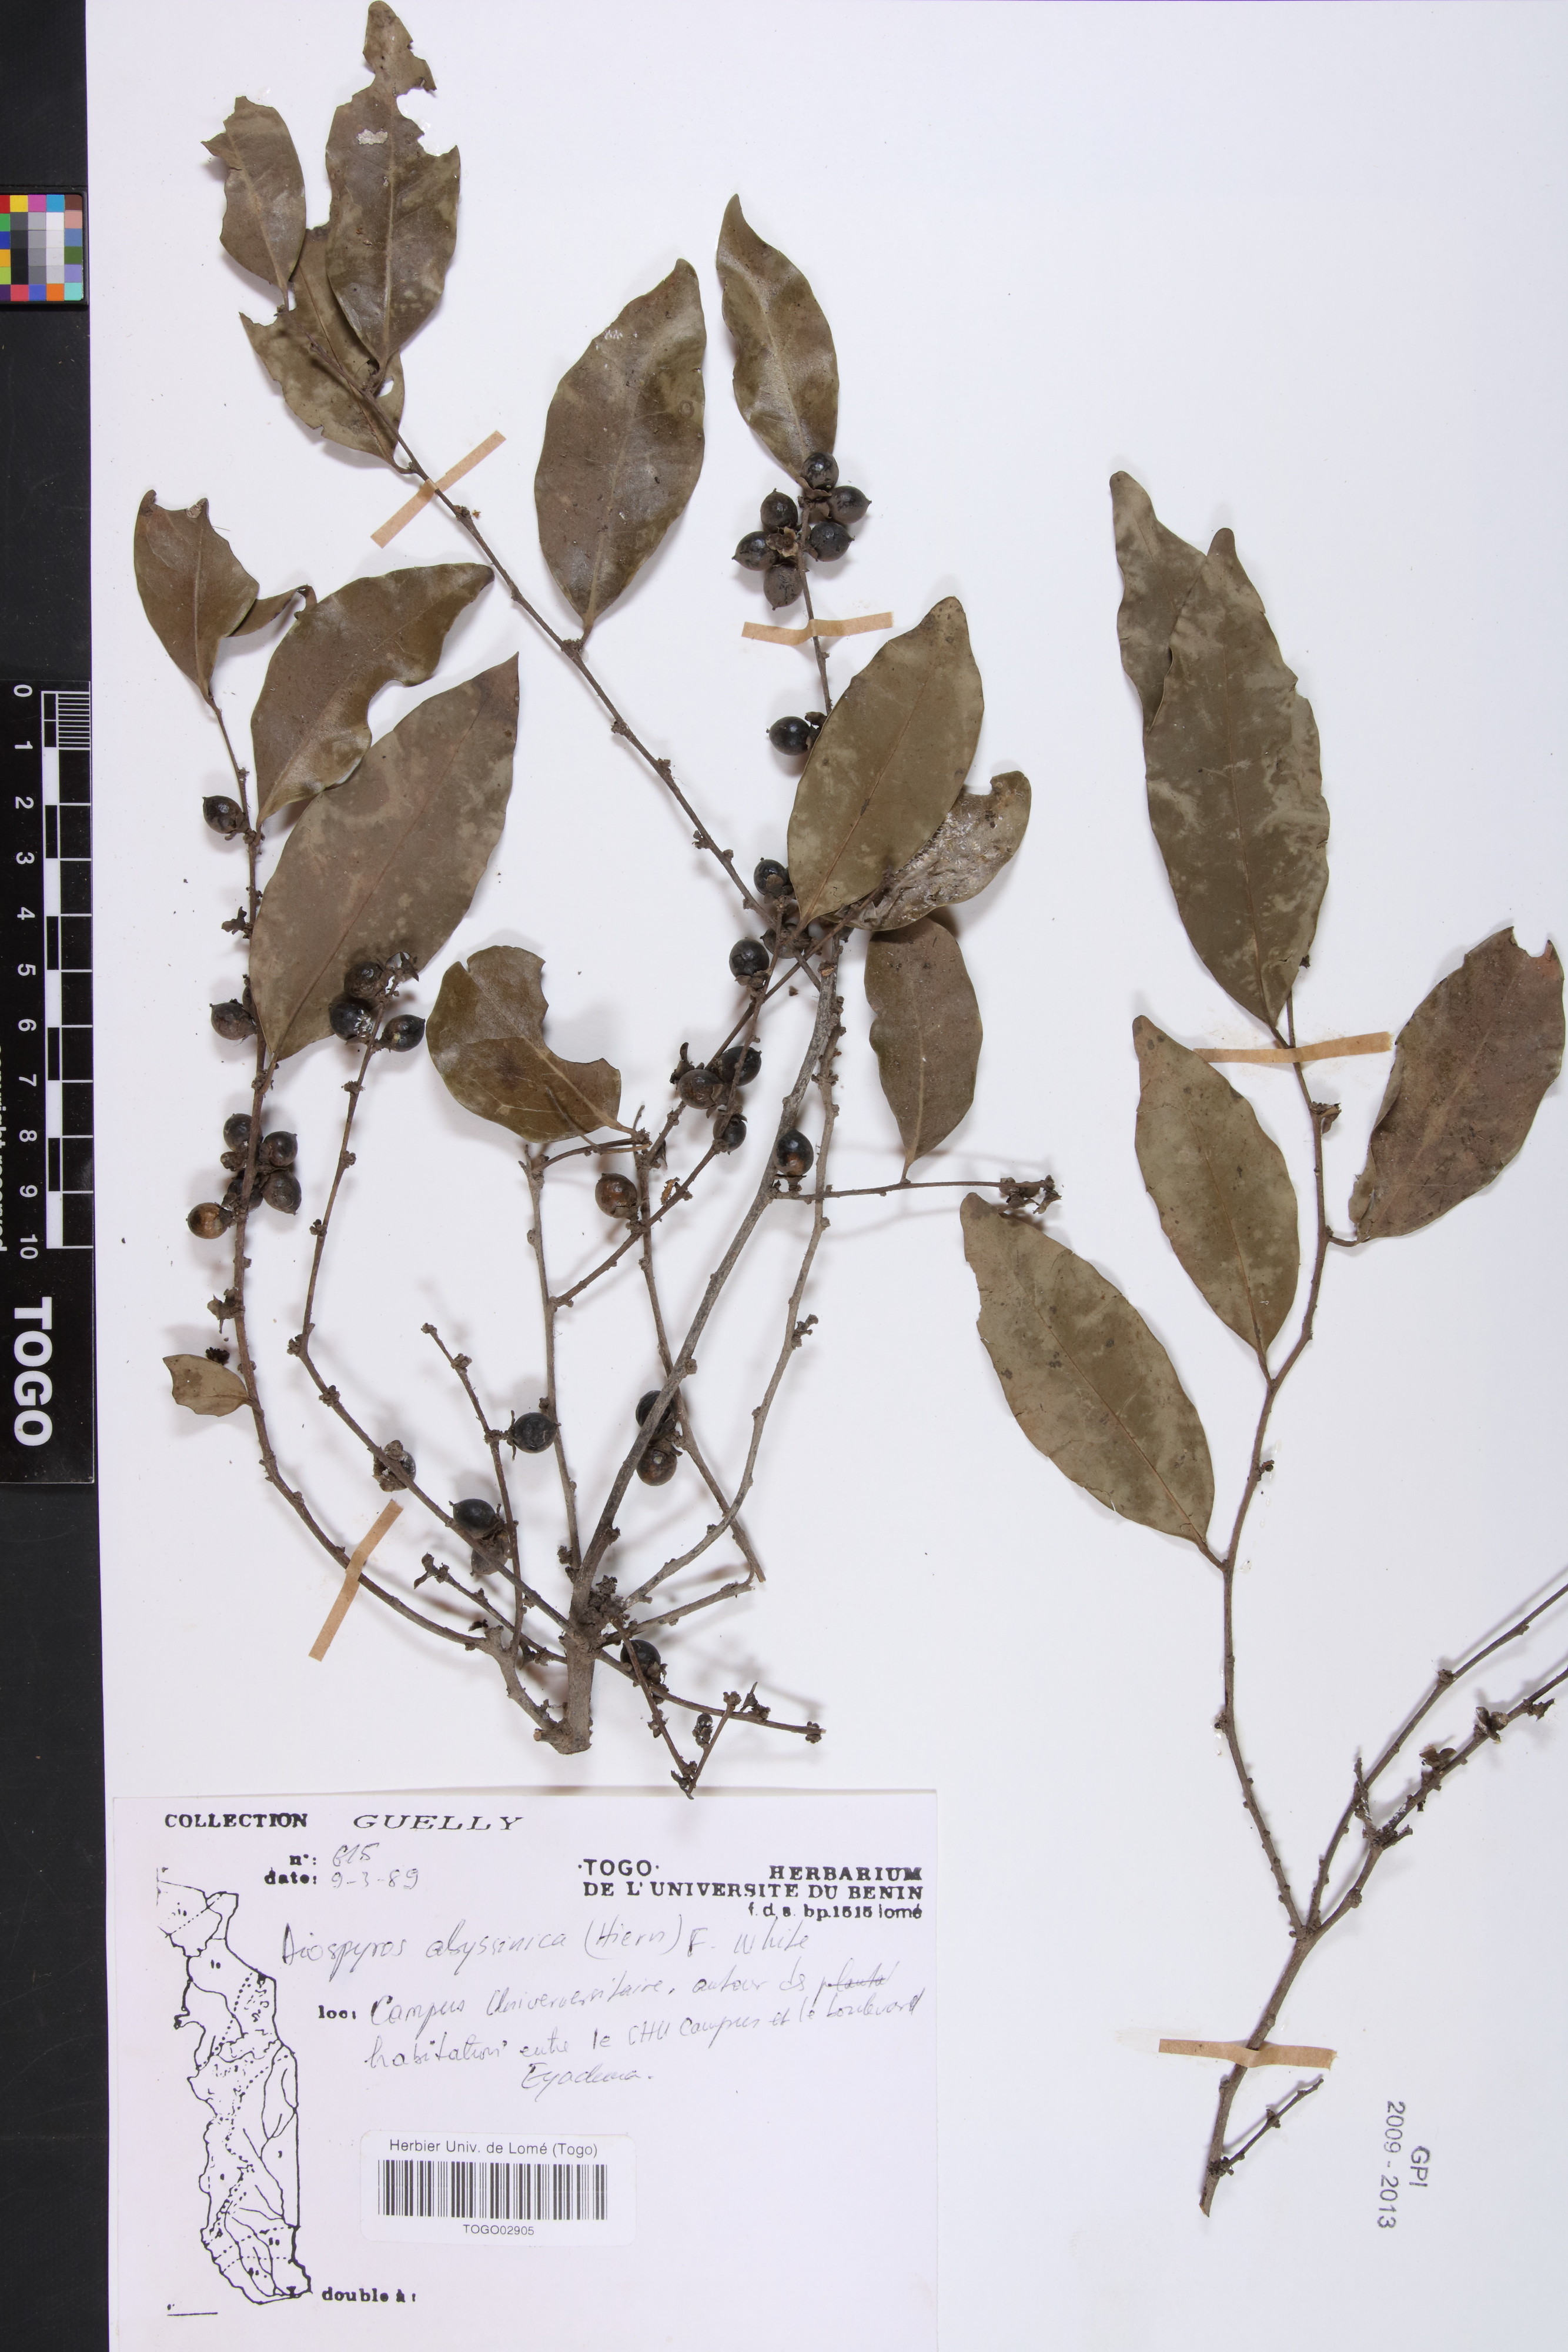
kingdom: Plantae
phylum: Tracheophyta
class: Magnoliopsida
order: Ericales
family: Ebenaceae
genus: Diospyros
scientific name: Diospyros abyssinica
